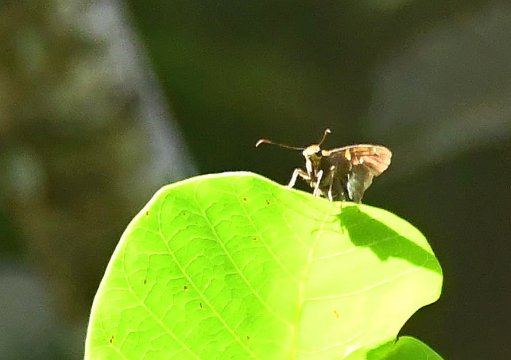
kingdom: Animalia
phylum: Arthropoda
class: Insecta
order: Lepidoptera
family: Hesperiidae
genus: Epargyreus
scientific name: Epargyreus exadeus
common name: Broken Silverdrop
